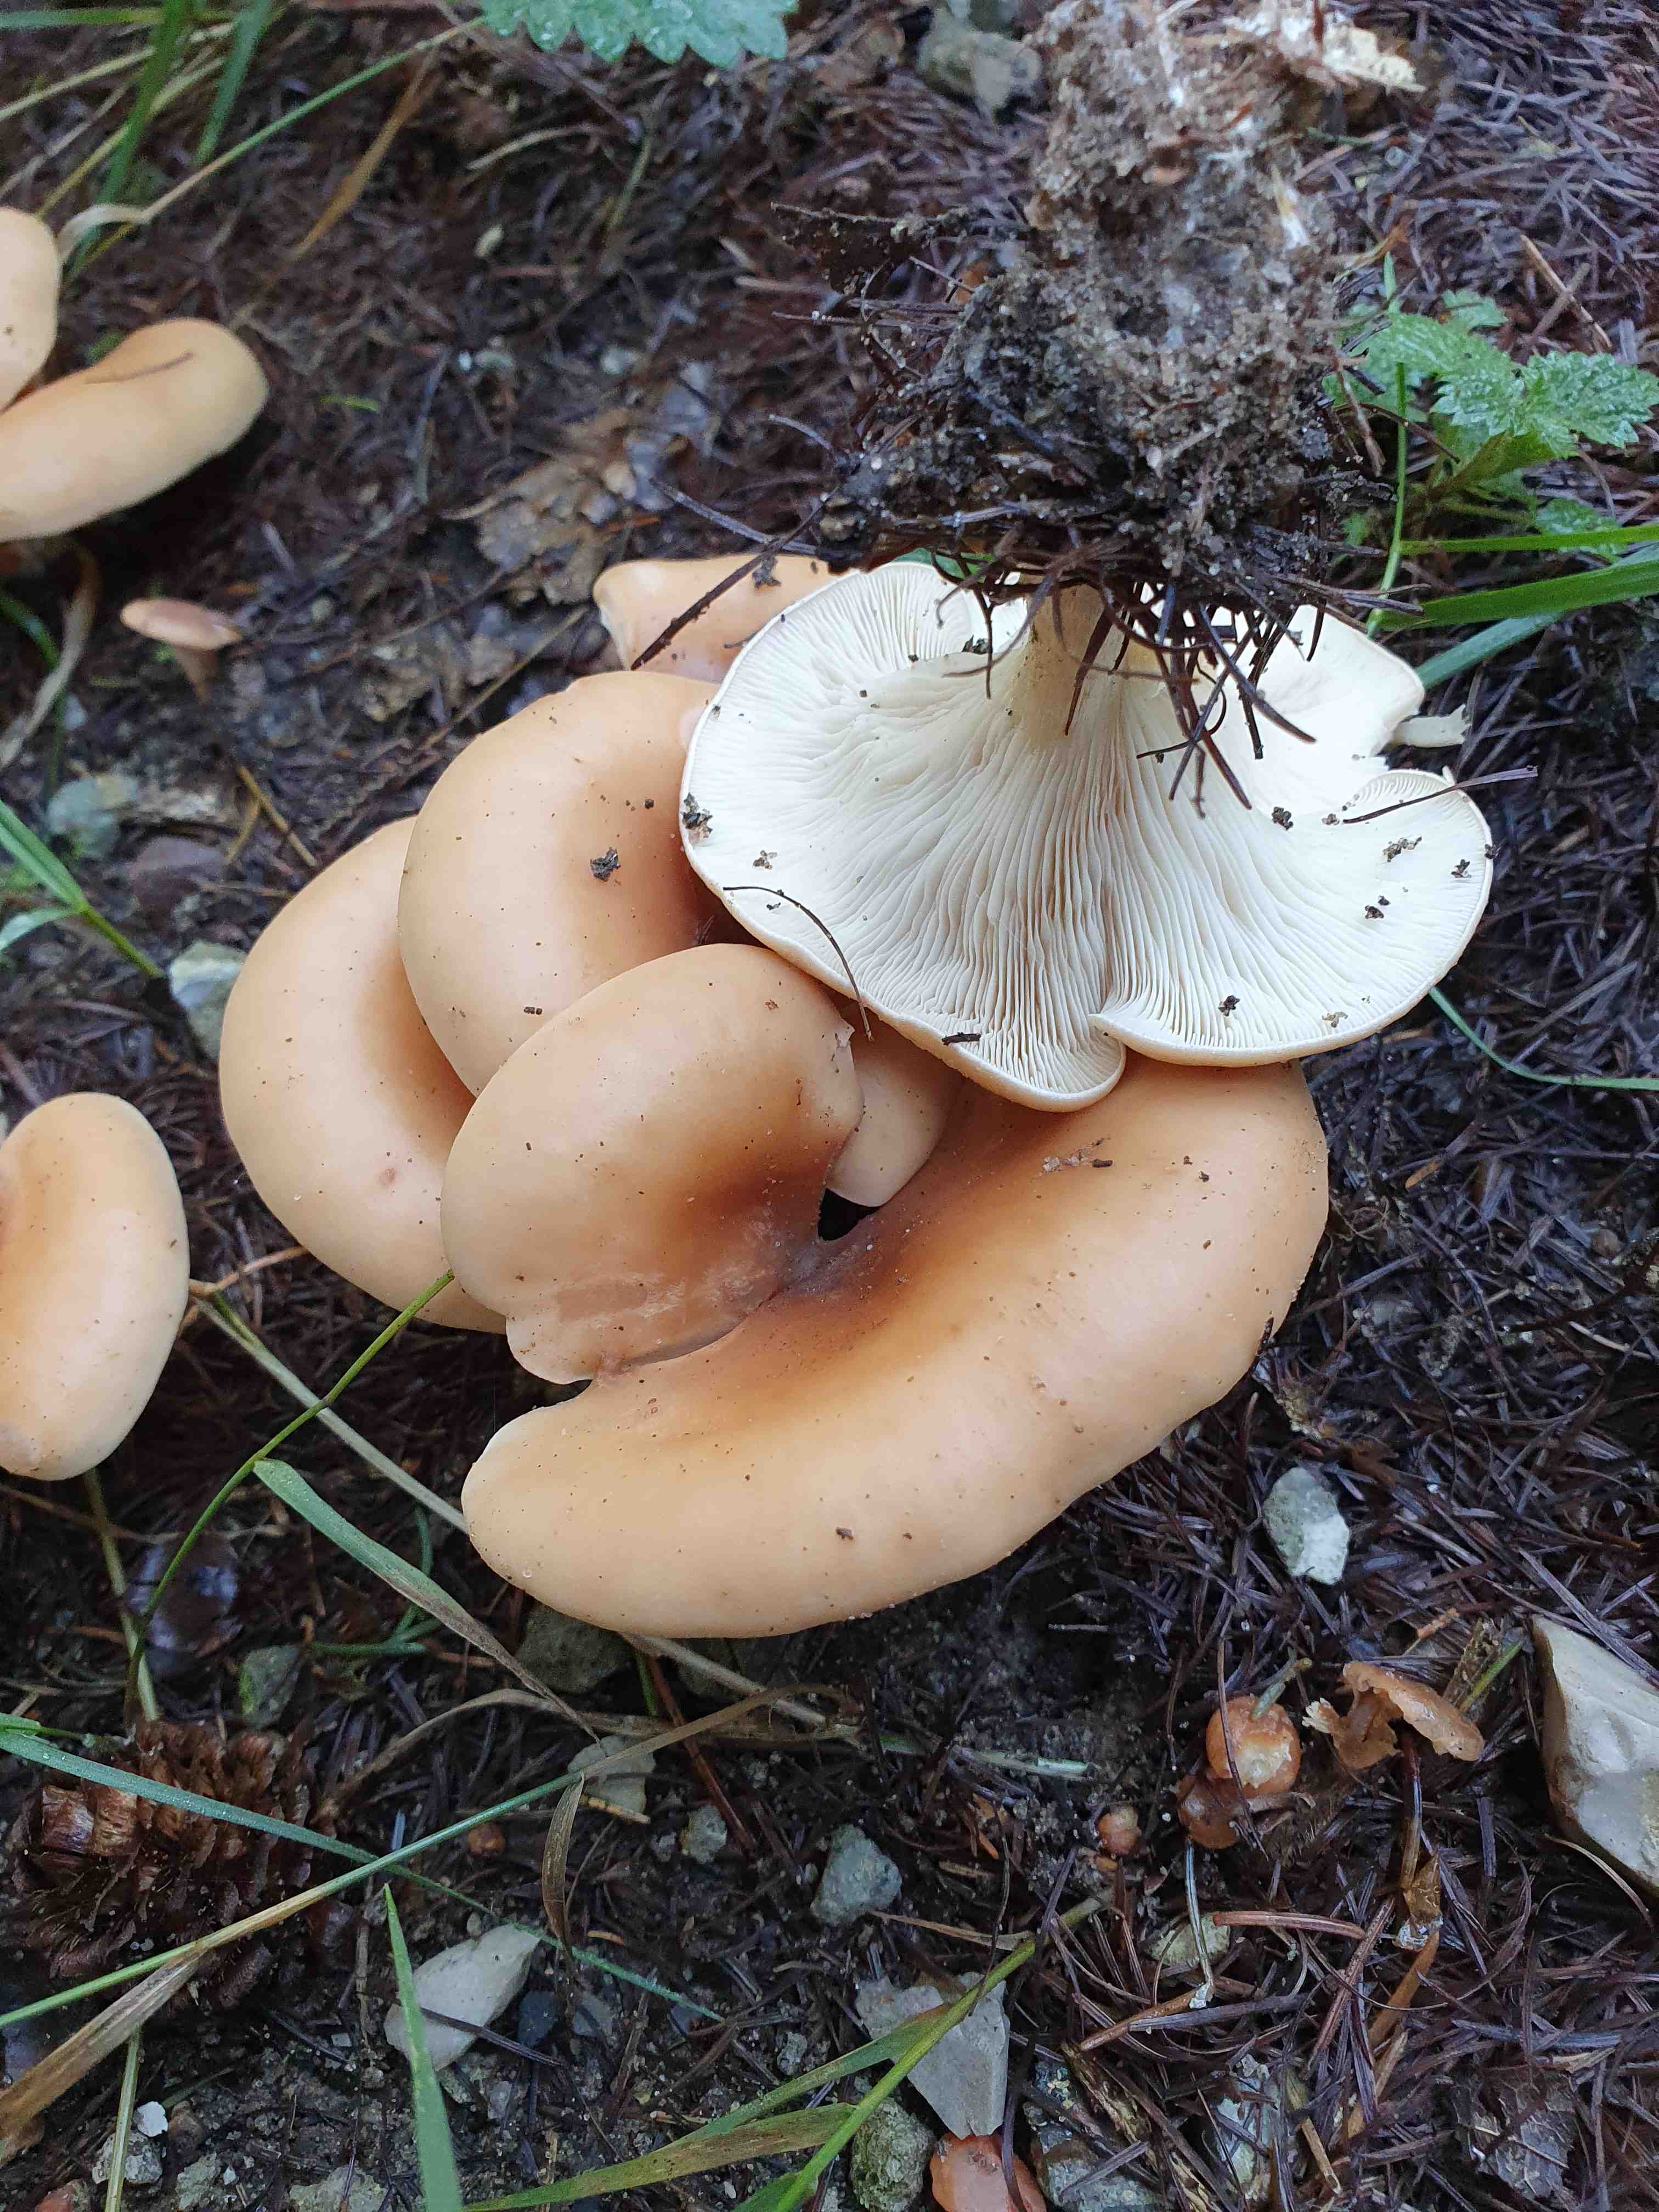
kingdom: Fungi
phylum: Basidiomycota
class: Agaricomycetes
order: Agaricales
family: Tricholomataceae
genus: Paralepista
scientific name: Paralepista flaccida
